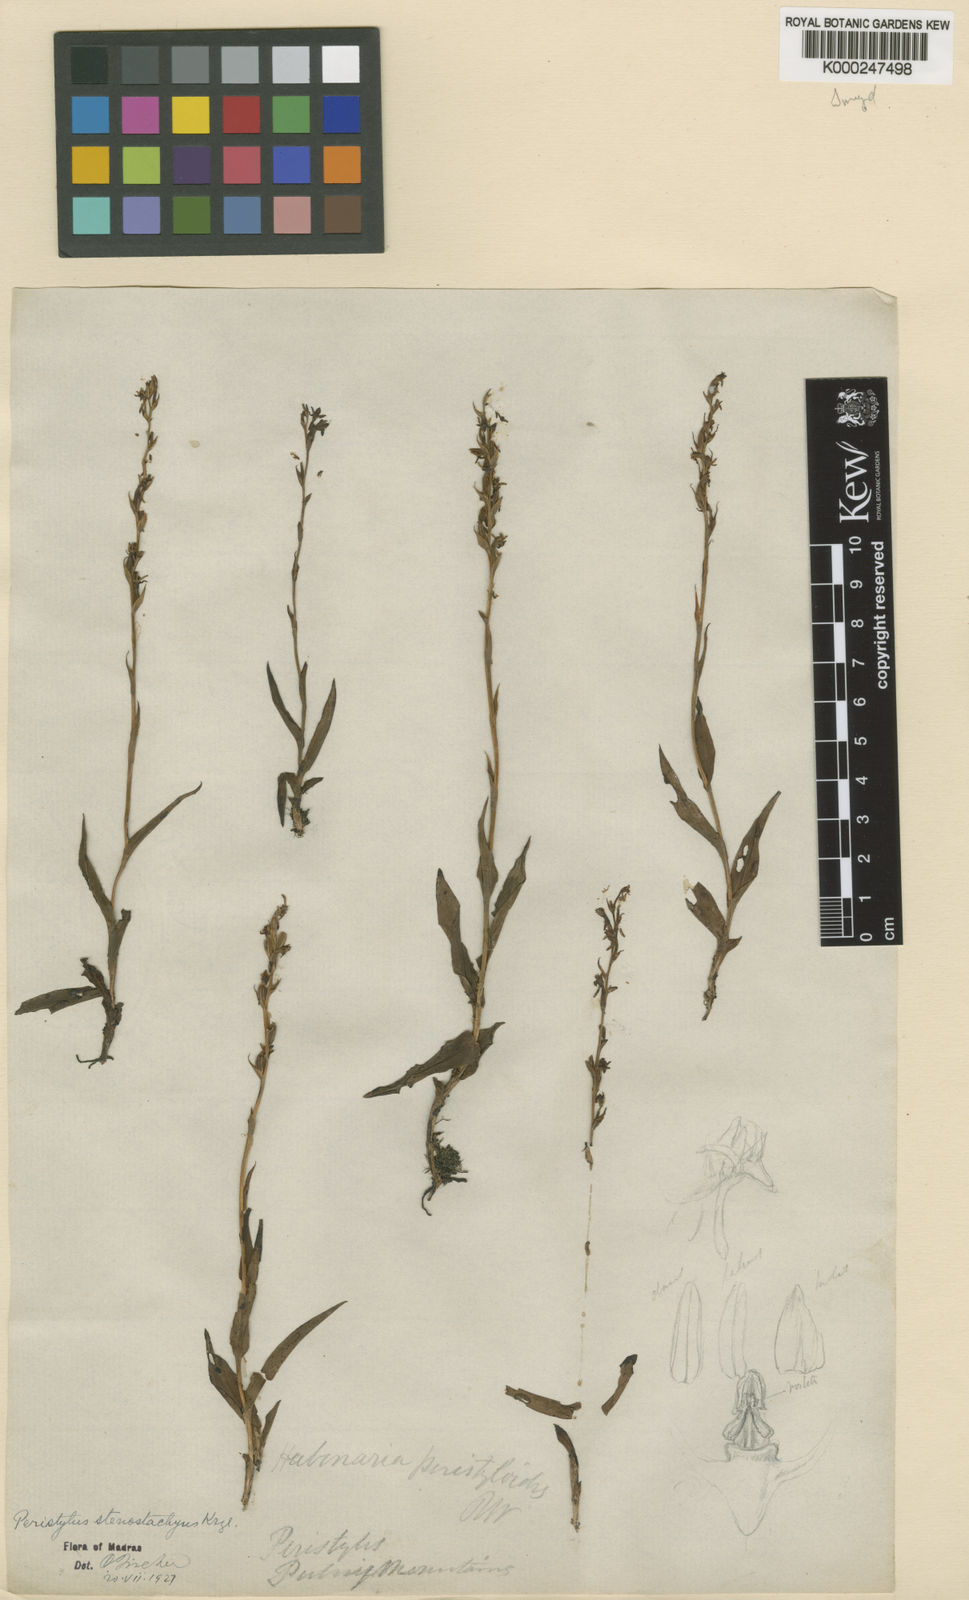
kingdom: Plantae
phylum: Tracheophyta
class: Liliopsida
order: Asparagales
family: Orchidaceae
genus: Peristylus
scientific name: Peristylus densus
